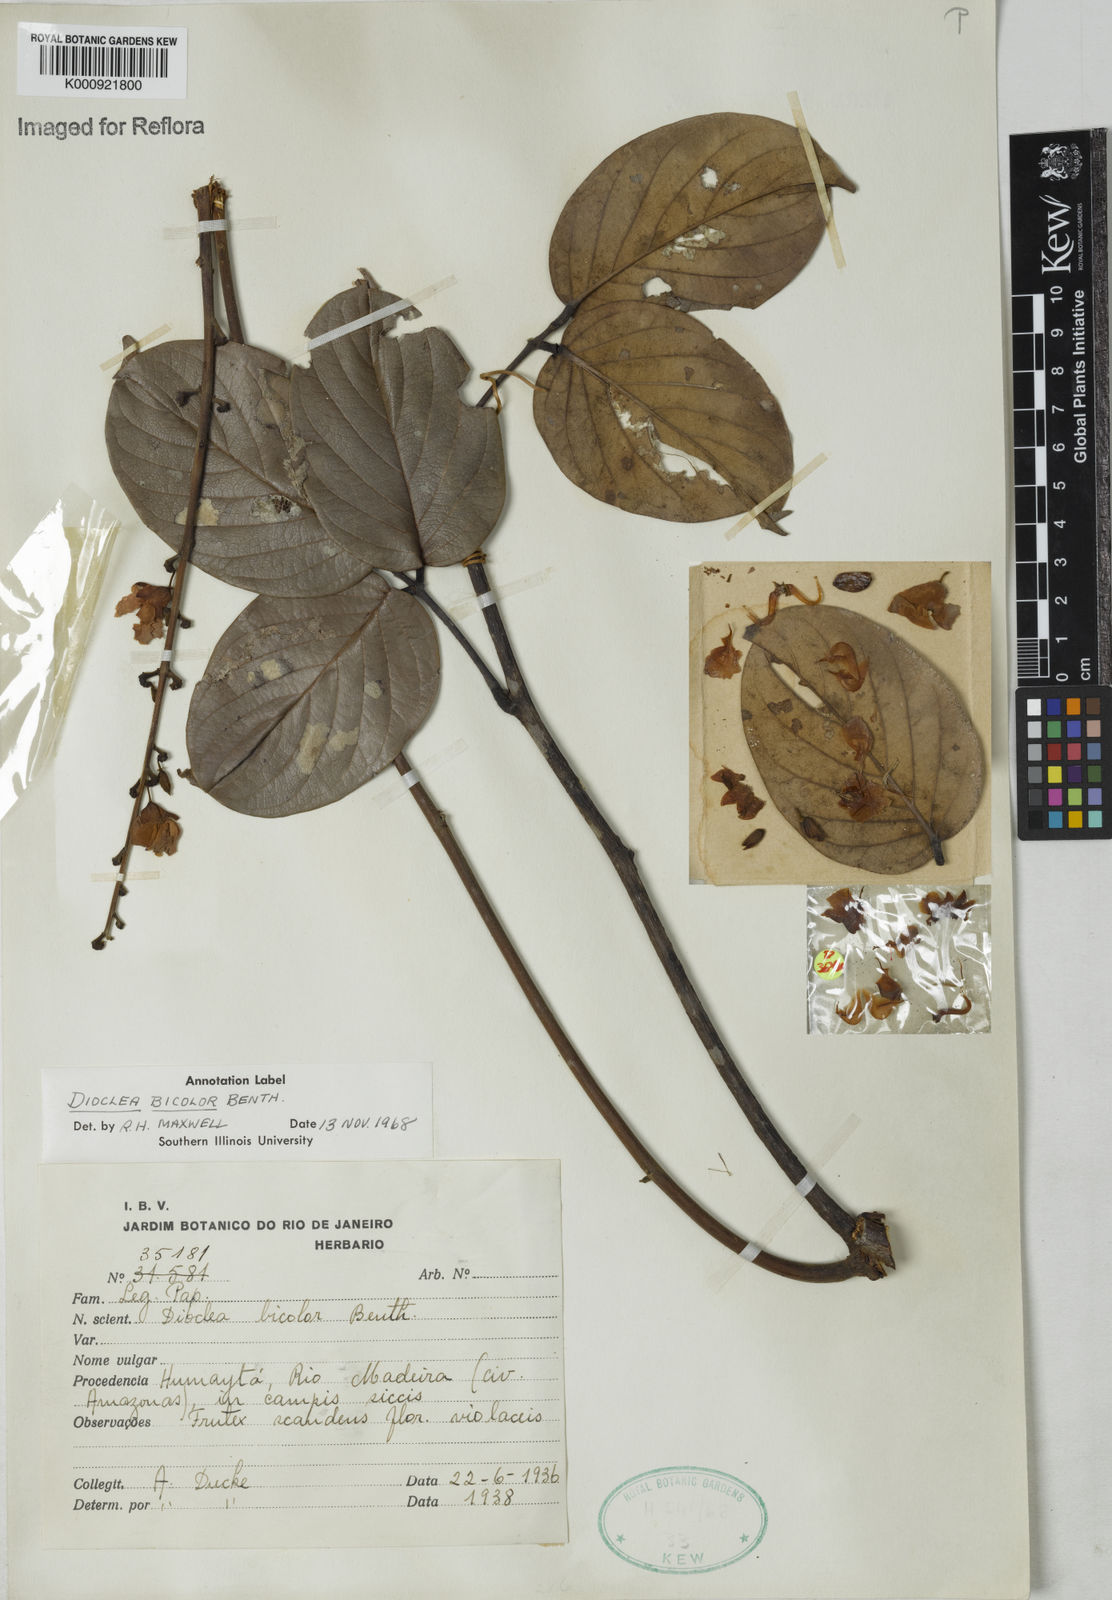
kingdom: Plantae
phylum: Tracheophyta
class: Magnoliopsida
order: Fabales
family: Fabaceae
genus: Macropsychanthus
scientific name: Macropsychanthus bicolor
